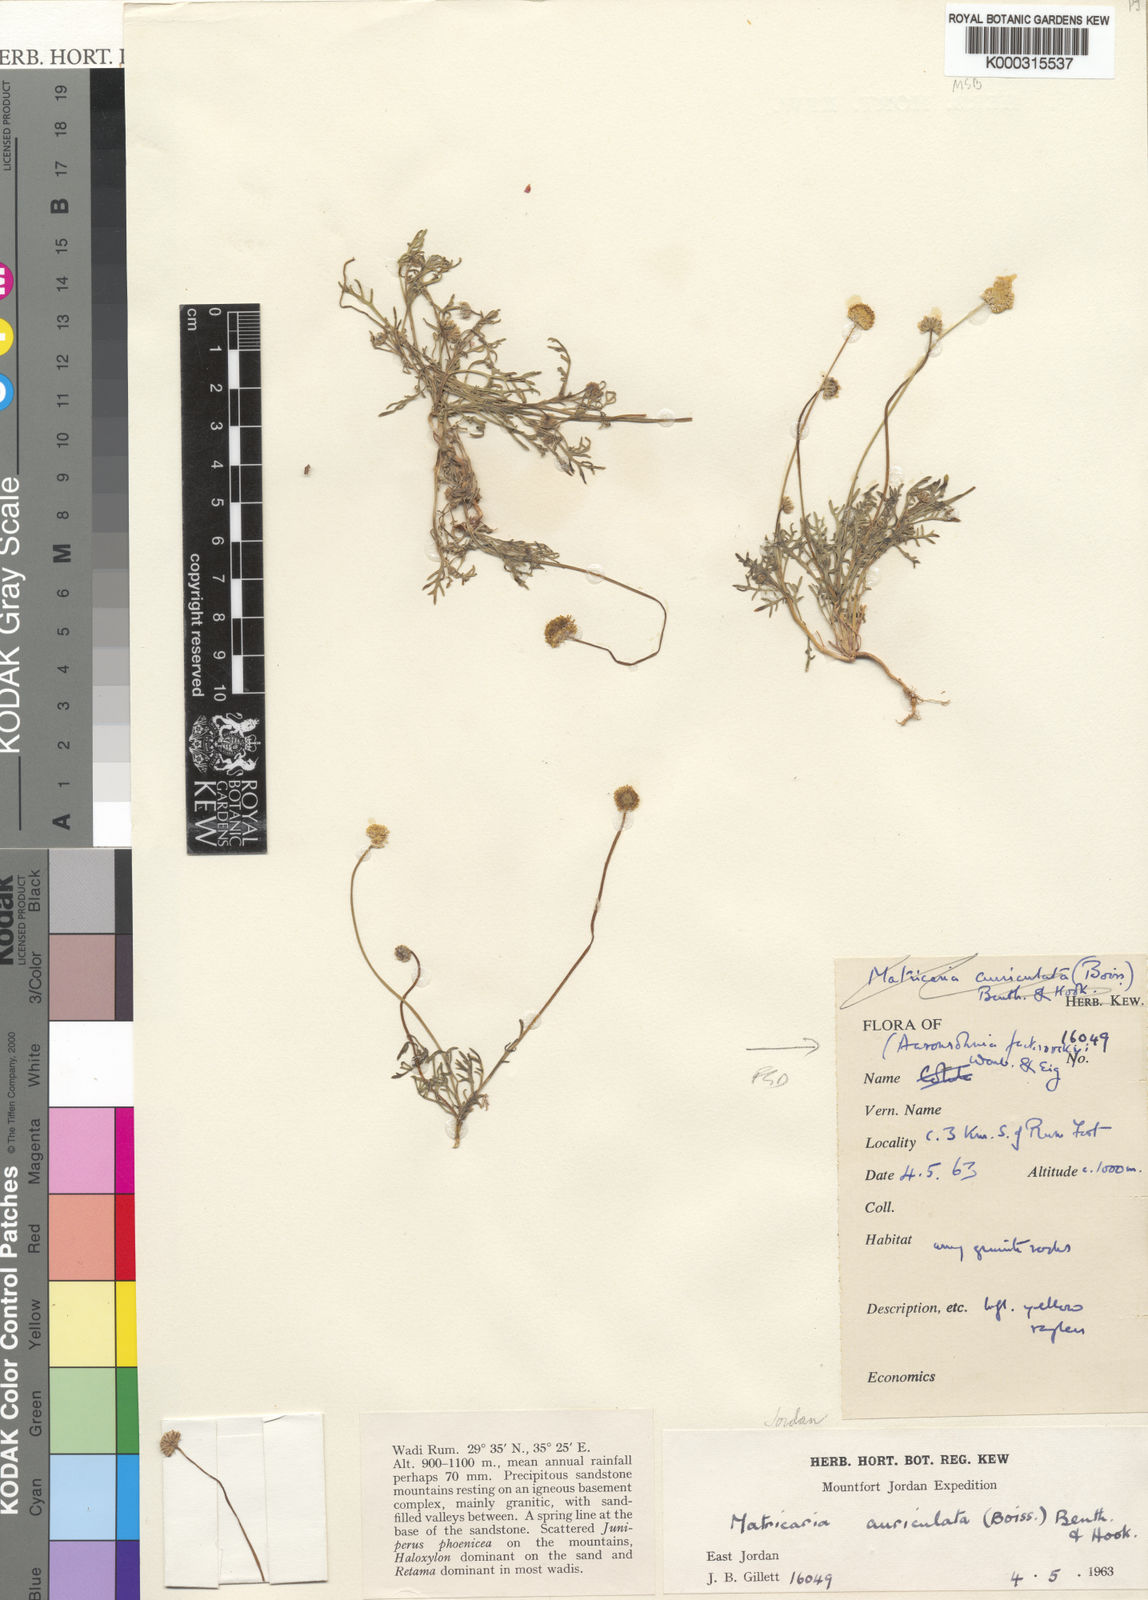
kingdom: Plantae
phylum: Tracheophyta
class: Magnoliopsida
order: Asterales
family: Asteraceae
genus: Otoglyphis
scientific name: Otoglyphis factorovskyi
